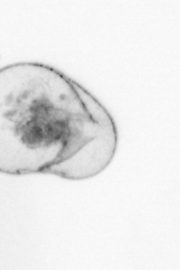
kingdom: Chromista
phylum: Myzozoa
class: Dinophyceae
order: Noctilucales
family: Noctilucaceae
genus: Noctiluca
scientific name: Noctiluca scintillans
